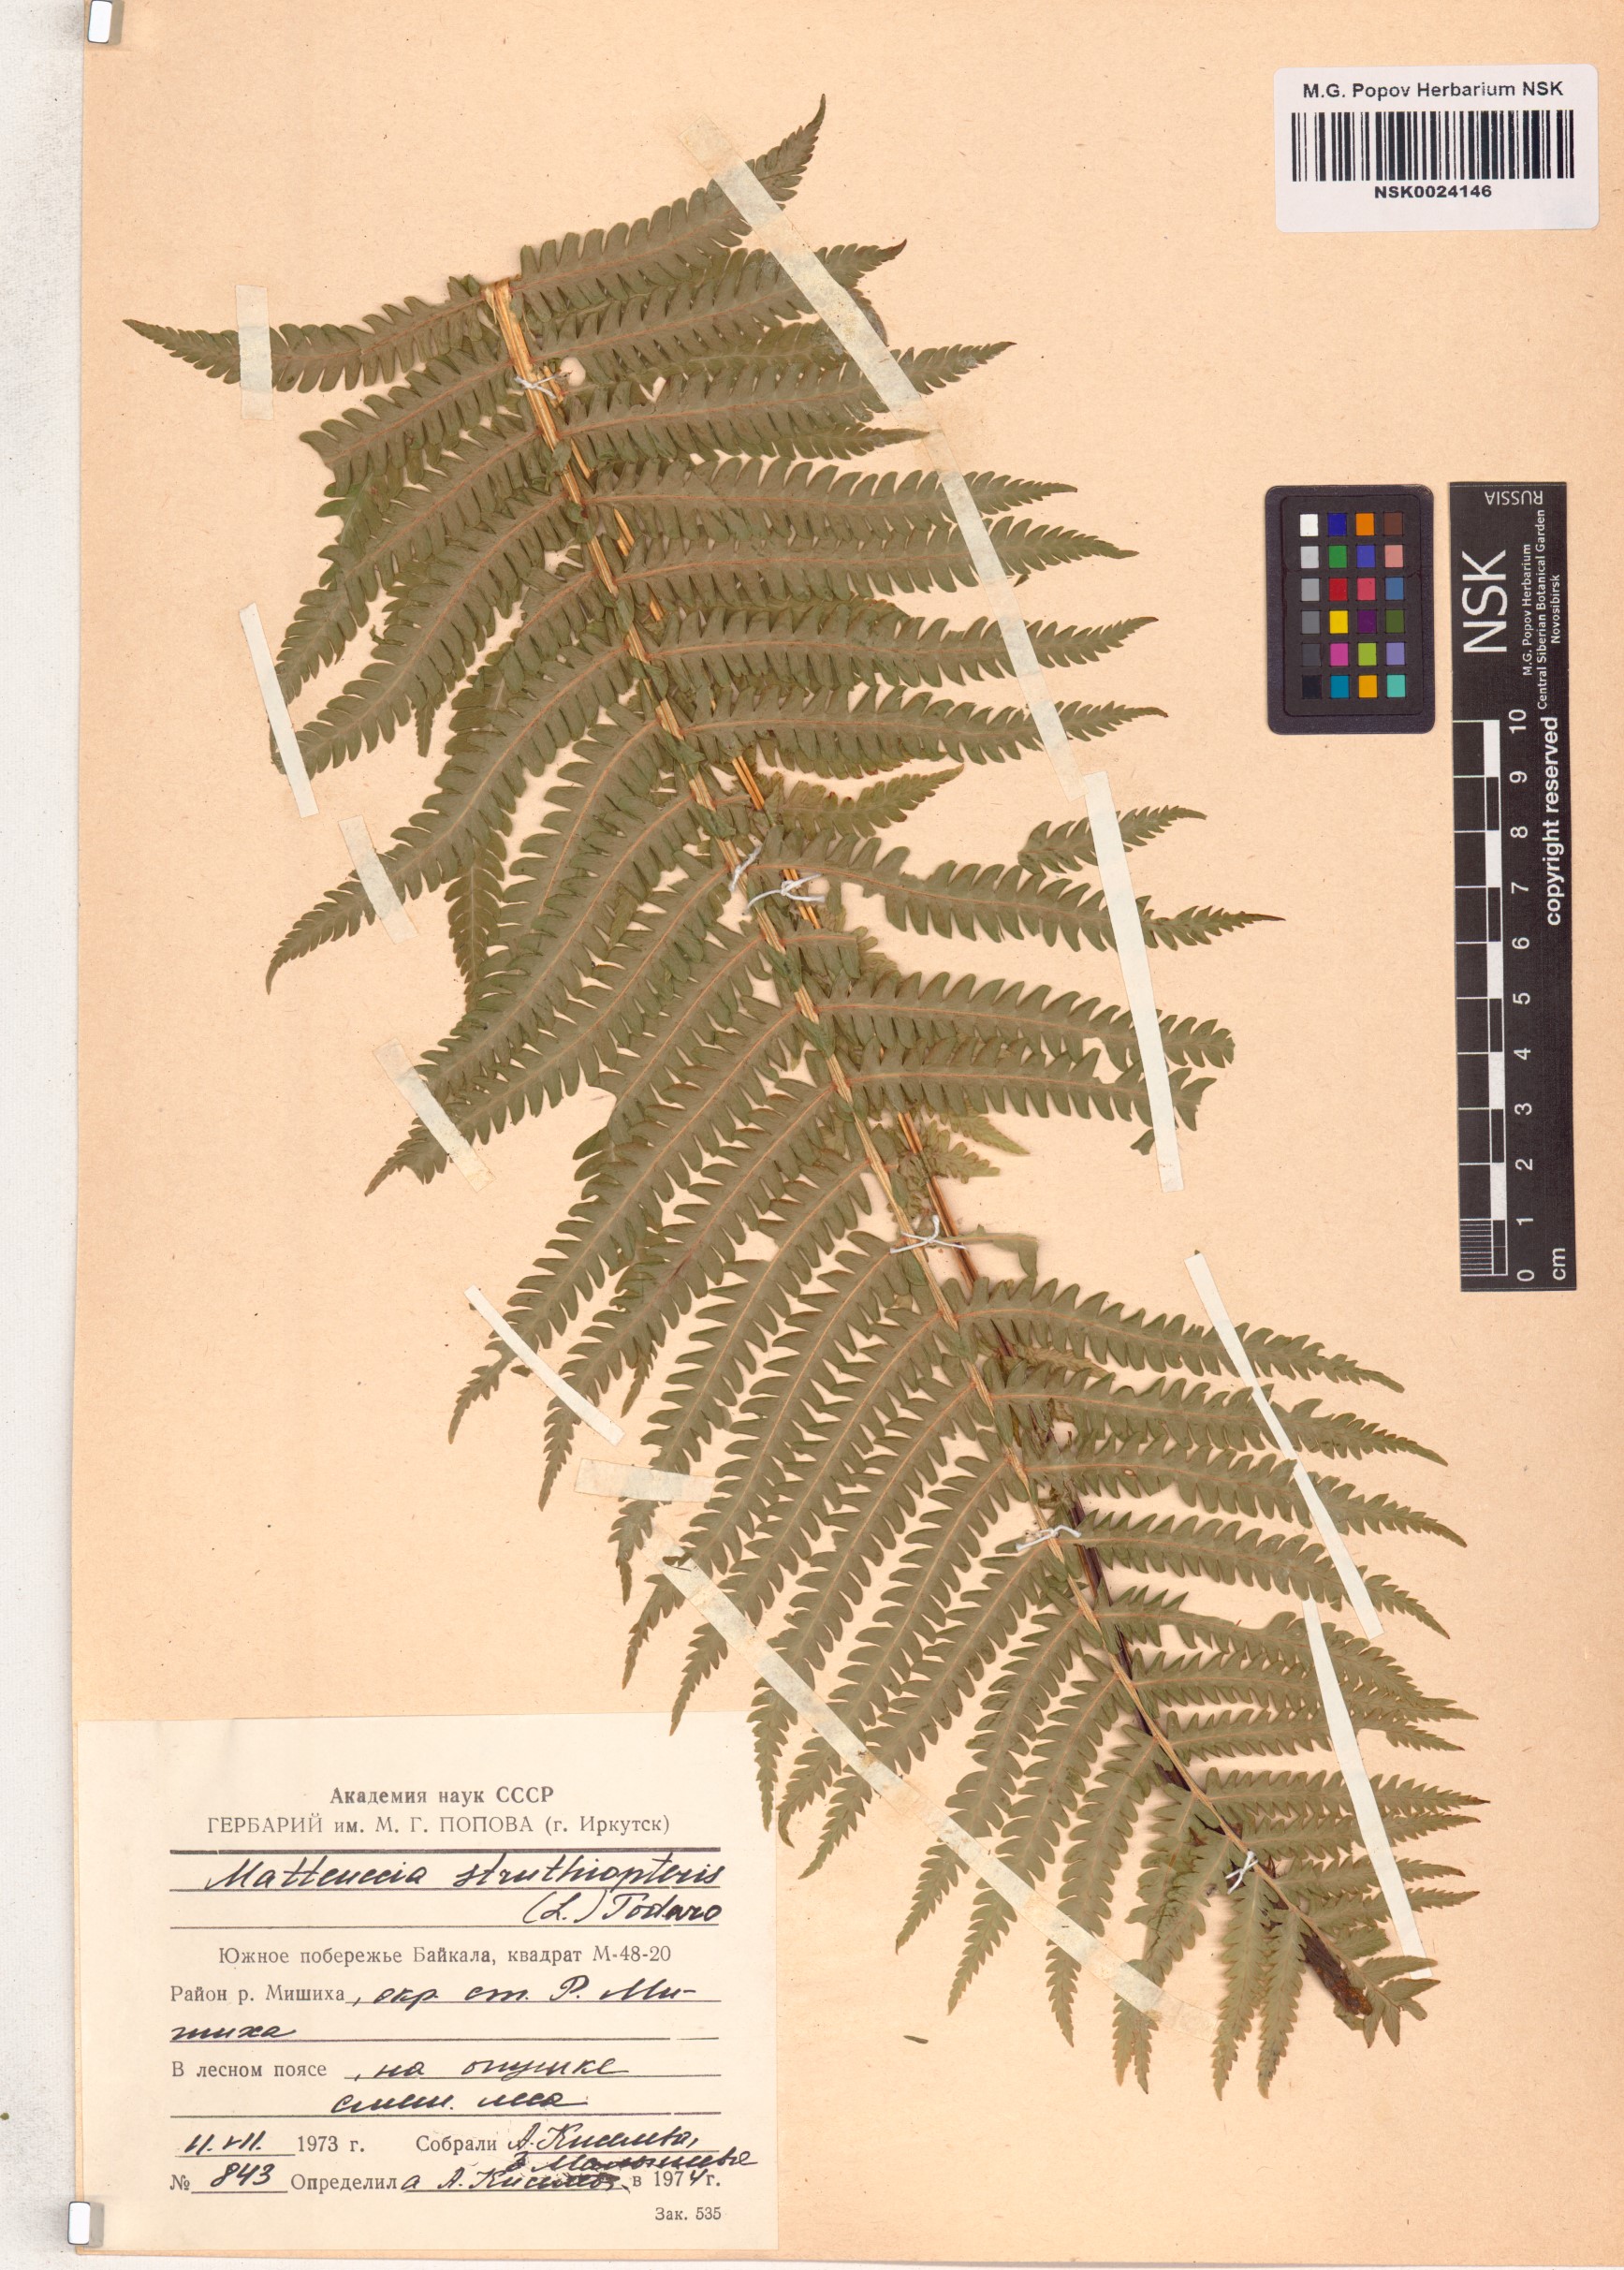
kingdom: Plantae
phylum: Tracheophyta
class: Polypodiopsida
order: Polypodiales
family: Onocleaceae
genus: Matteuccia
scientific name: Matteuccia struthiopteris
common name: Ostrich fern
